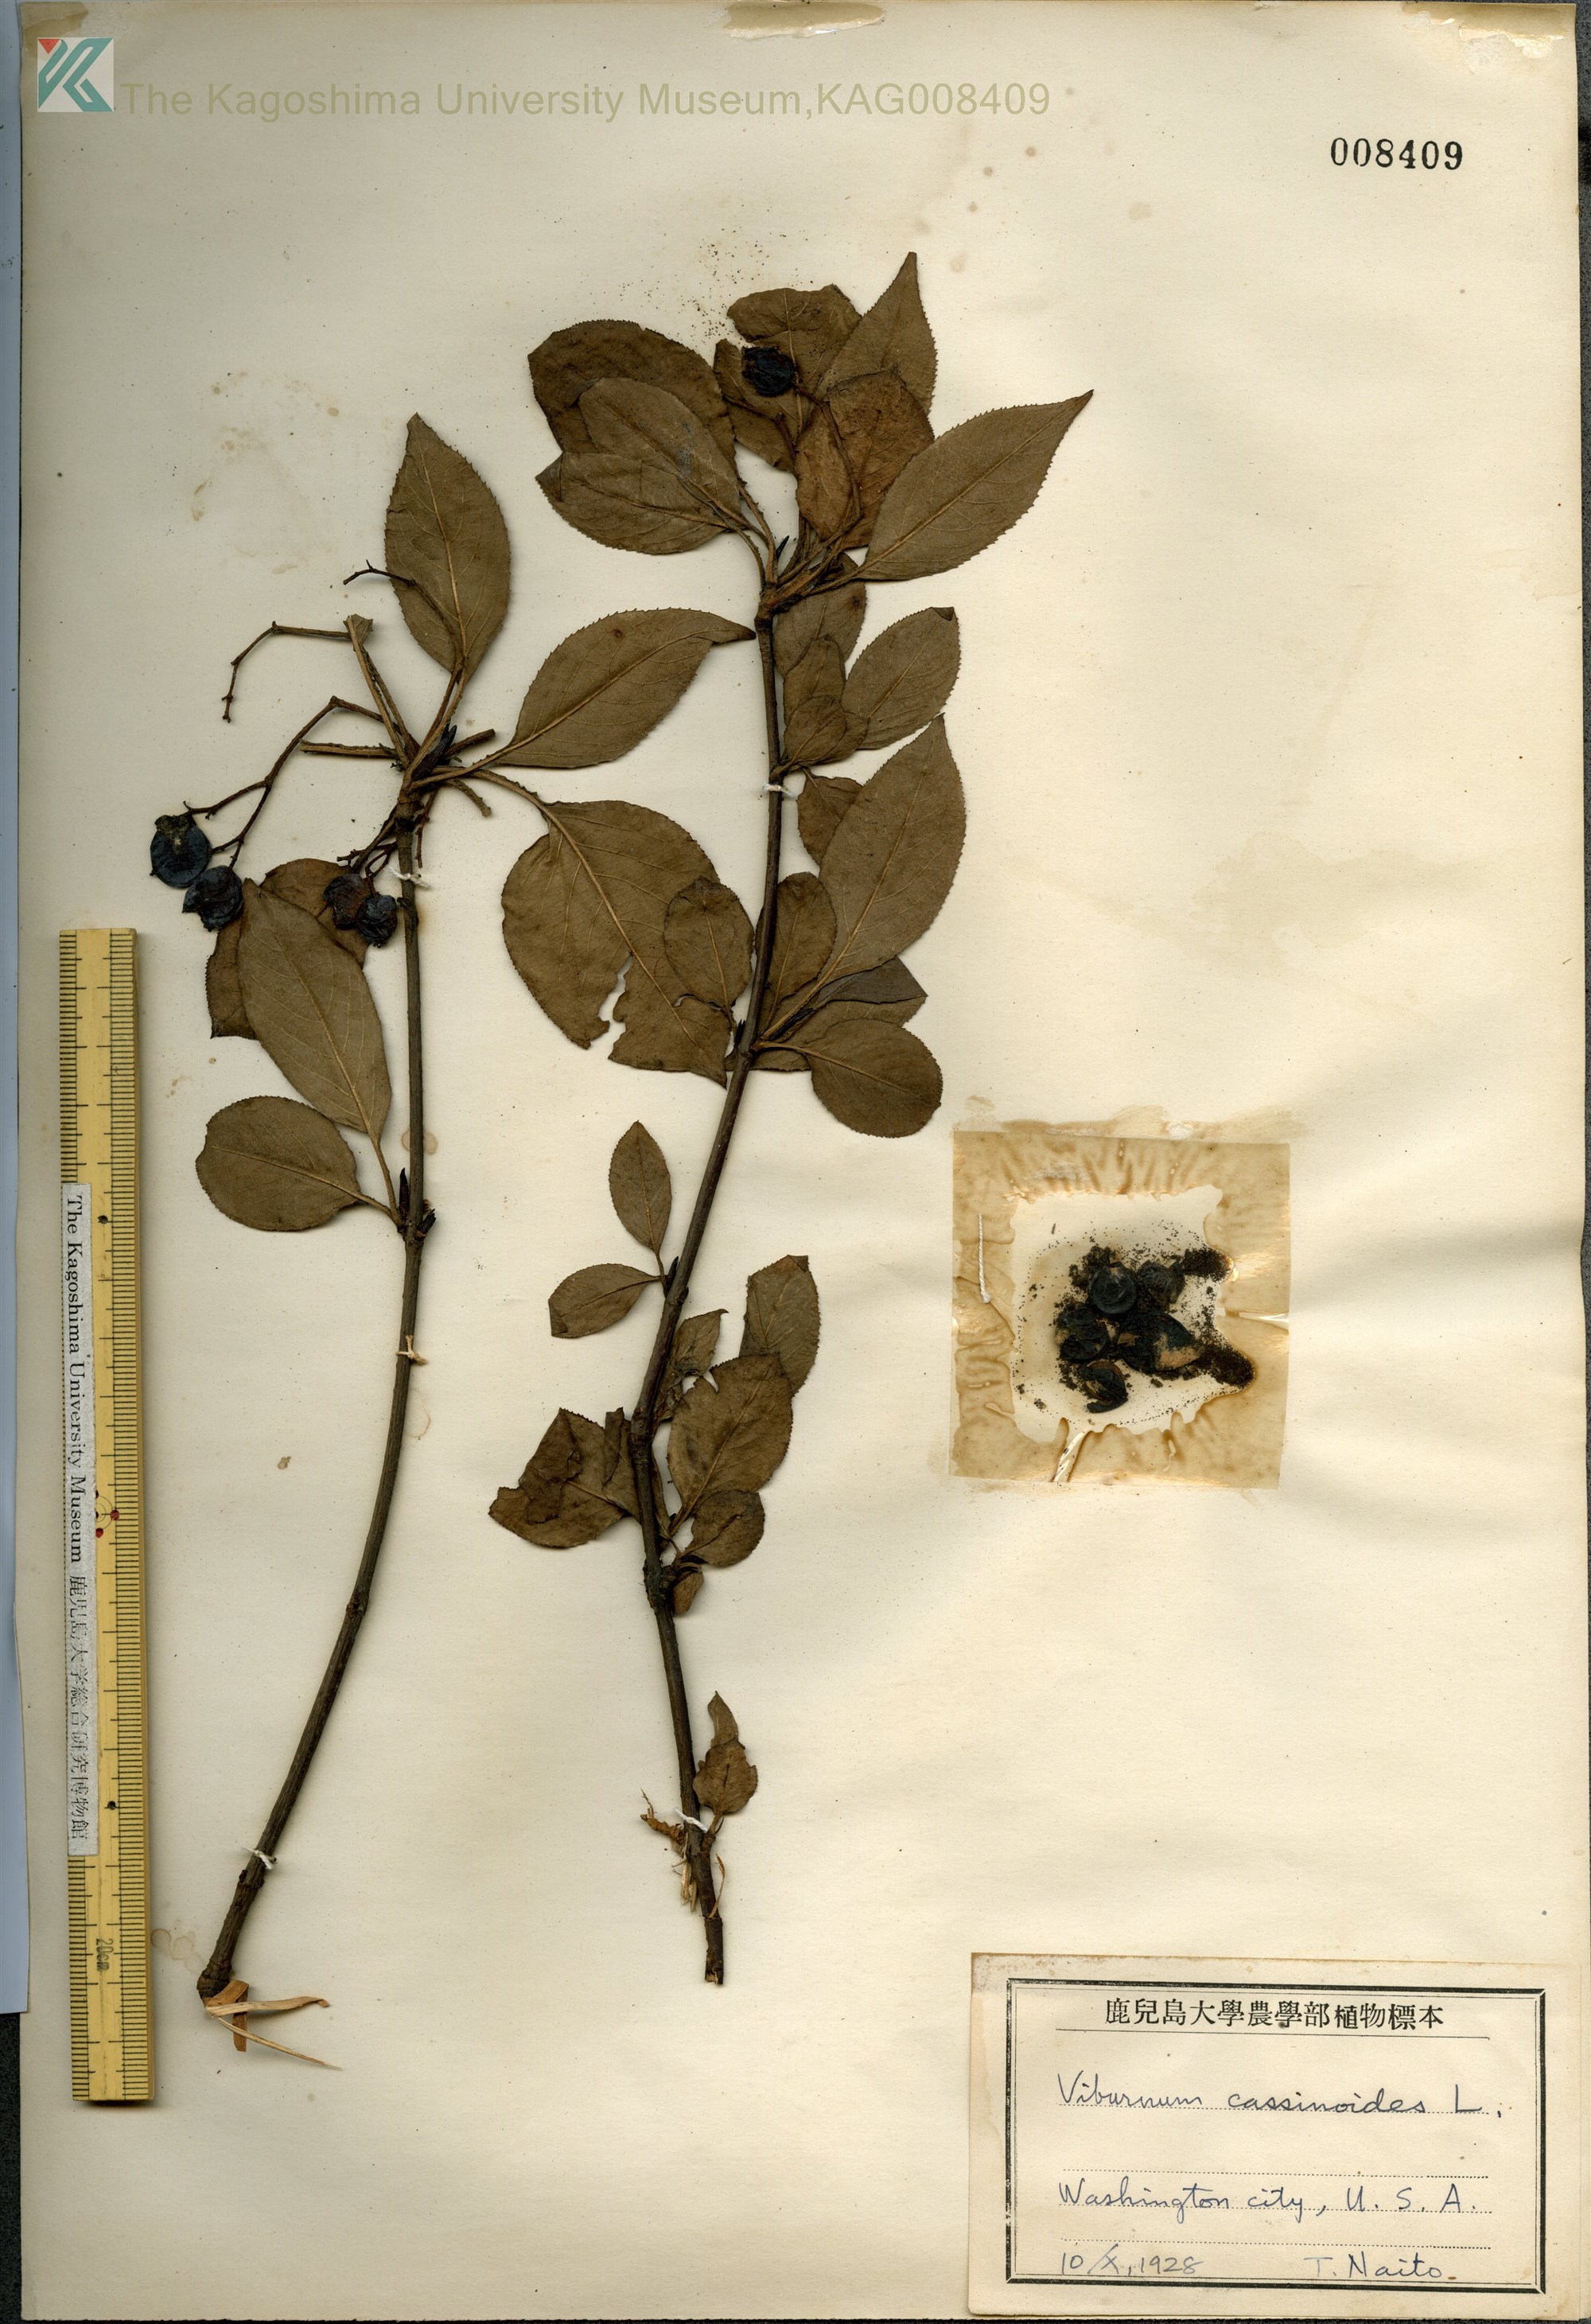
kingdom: Plantae
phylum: Tracheophyta
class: Magnoliopsida
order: Dipsacales
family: Viburnaceae
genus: Viburnum
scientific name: Viburnum cassinoides
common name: Swamp haw
